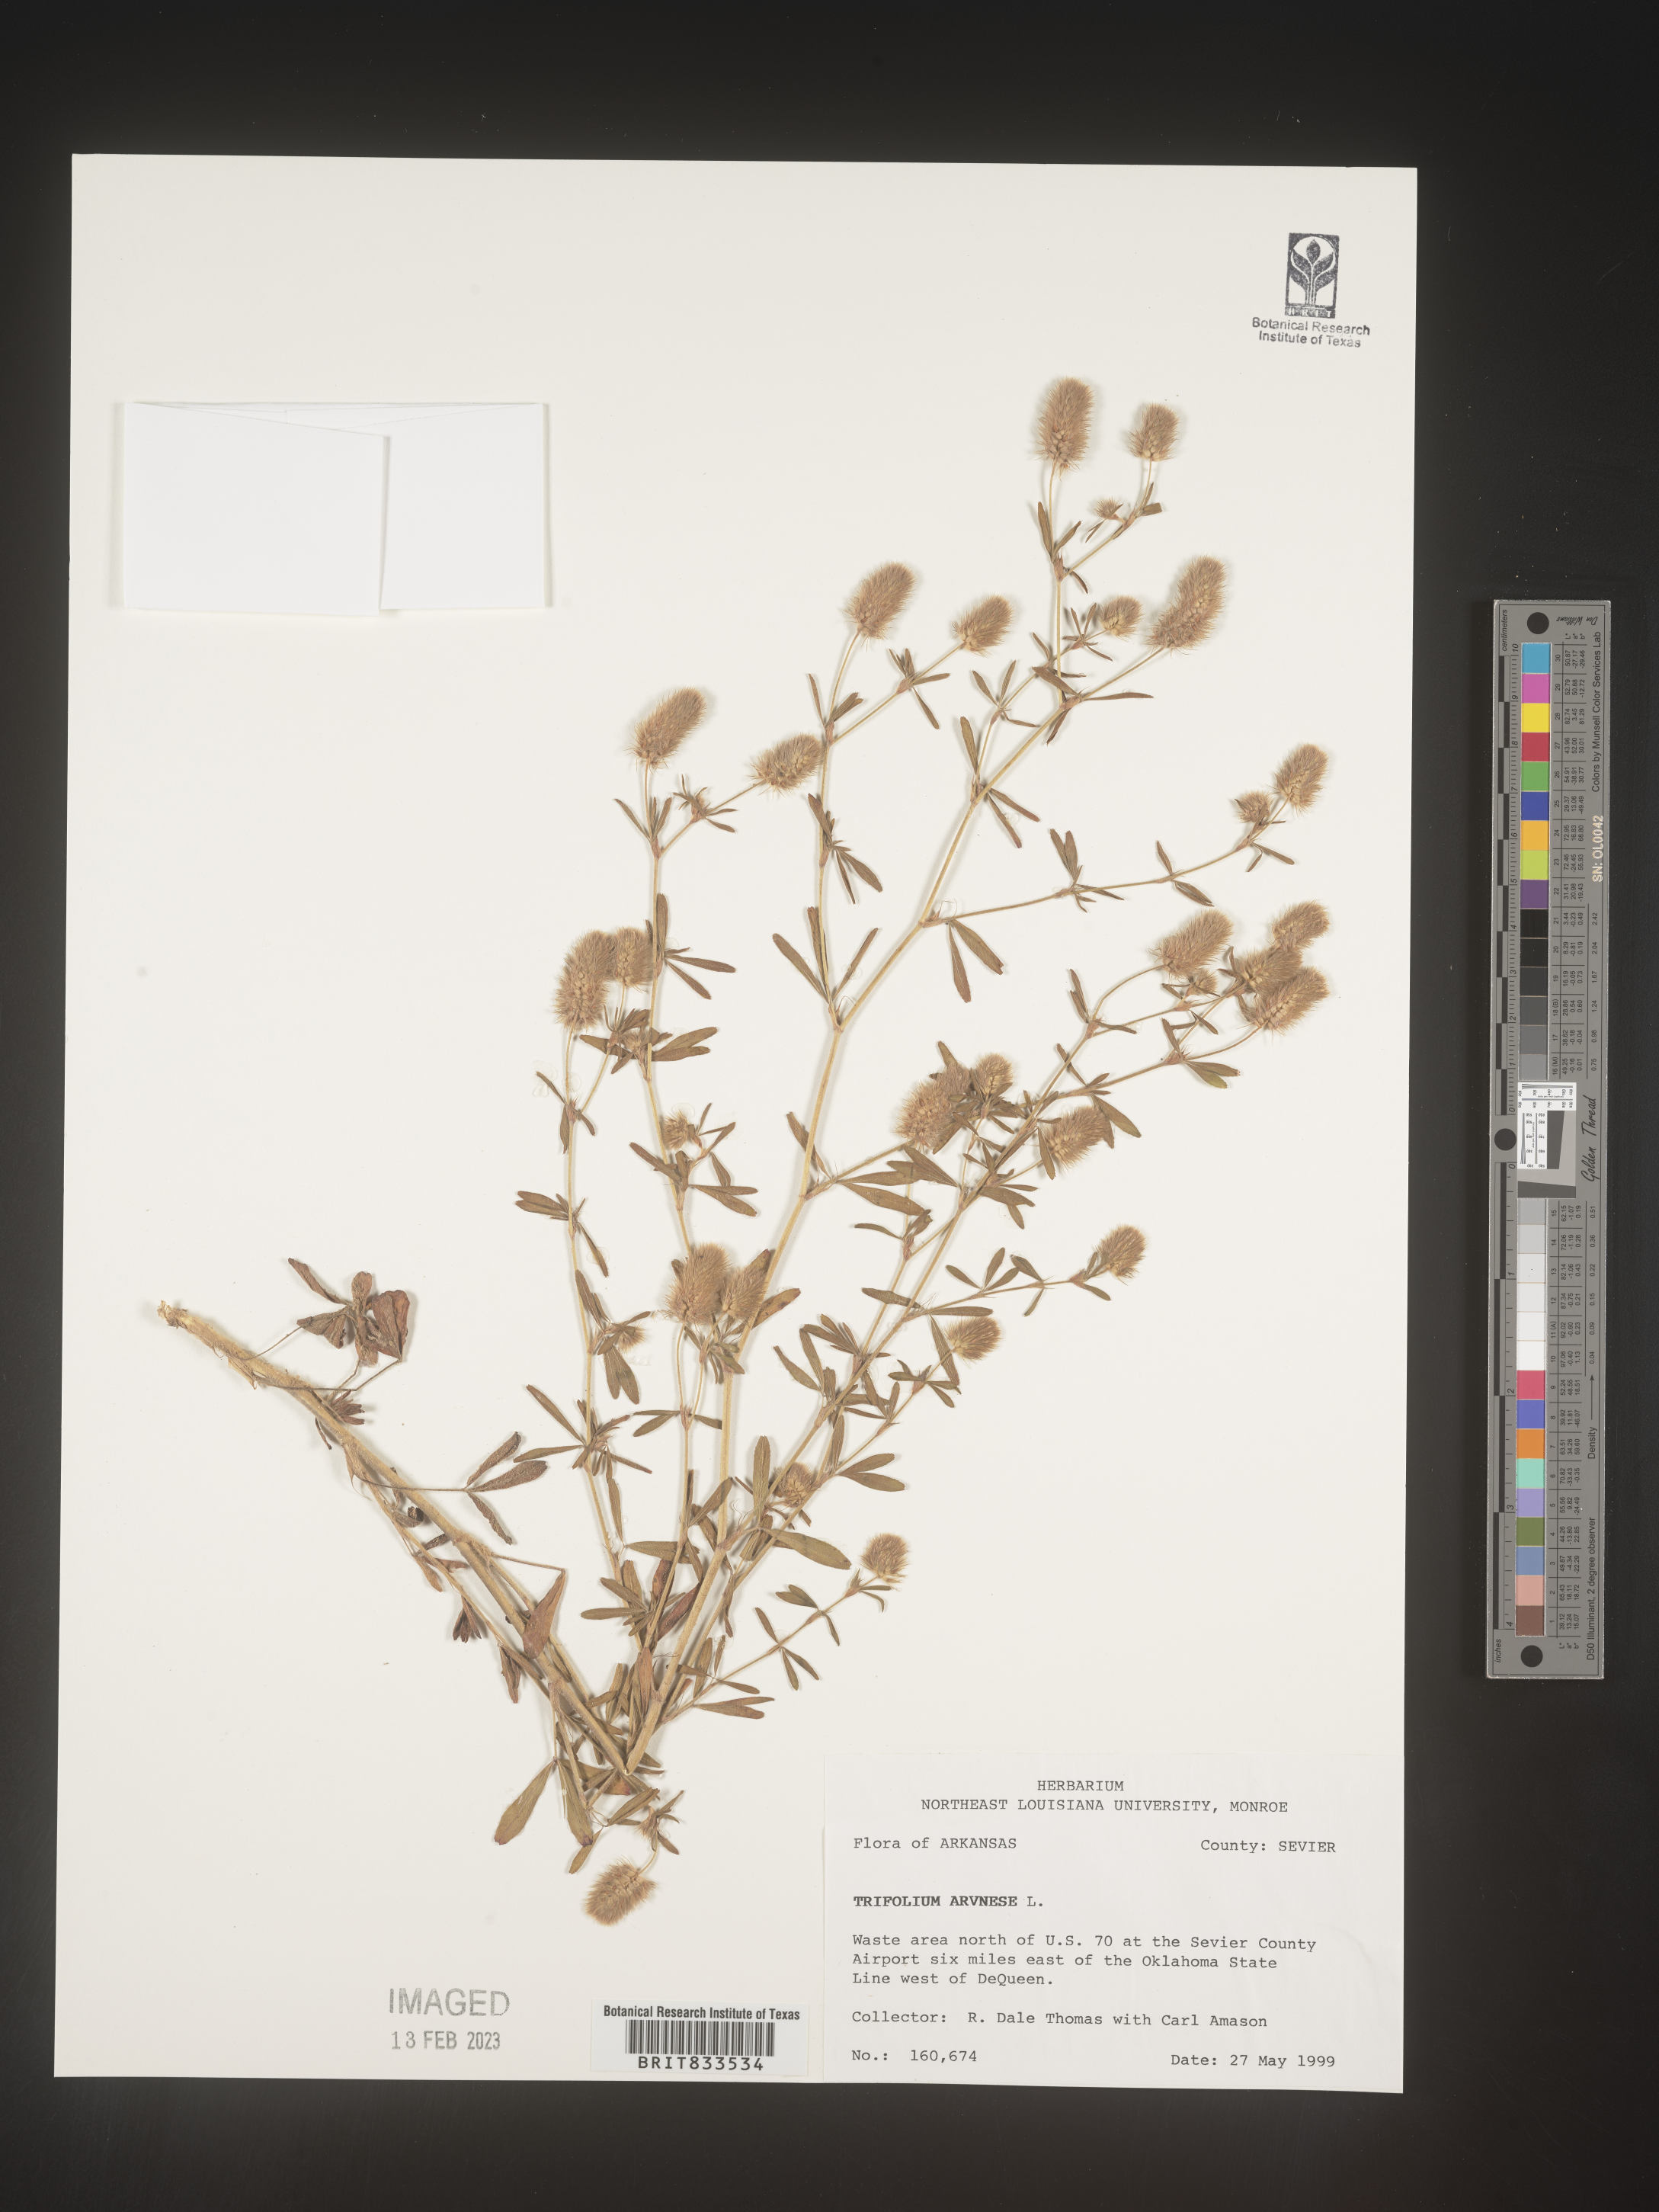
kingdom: Plantae
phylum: Tracheophyta
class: Magnoliopsida
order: Fabales
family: Fabaceae
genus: Trifolium
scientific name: Trifolium arvense
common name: Hare's-foot clover
